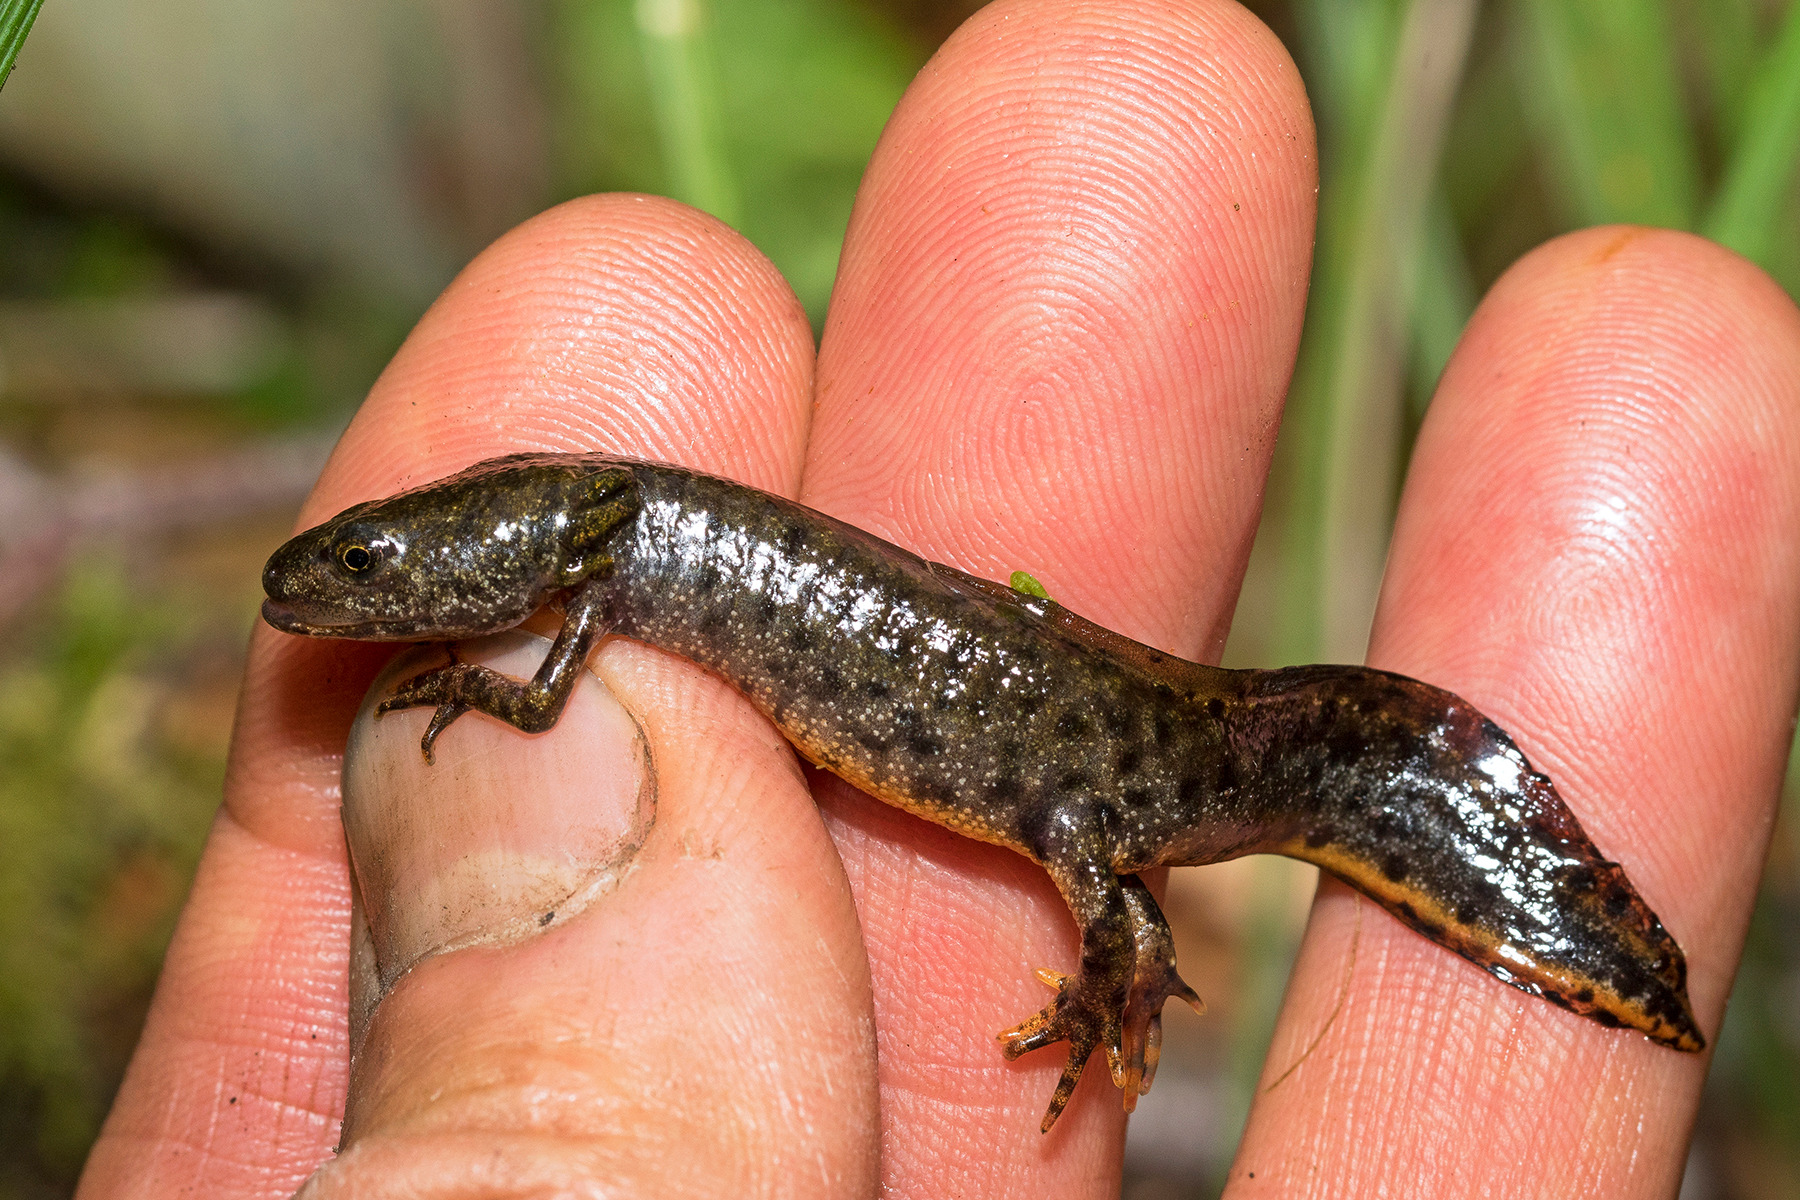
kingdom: Animalia
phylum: Chordata
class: Amphibia
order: Caudata
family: Salamandridae
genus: Triturus
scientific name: Triturus cristatus
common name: Stor vandsalamander
